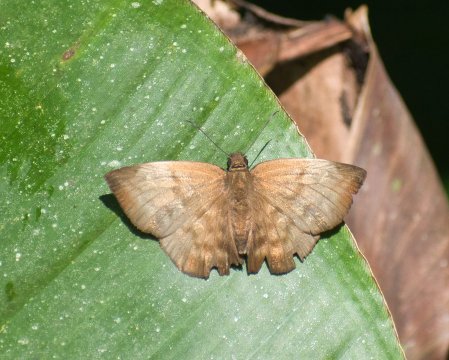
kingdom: Animalia
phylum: Arthropoda
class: Insecta
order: Lepidoptera
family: Hesperiidae
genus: Achlyodes
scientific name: Achlyodes pallida
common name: Pale Sicklewing
